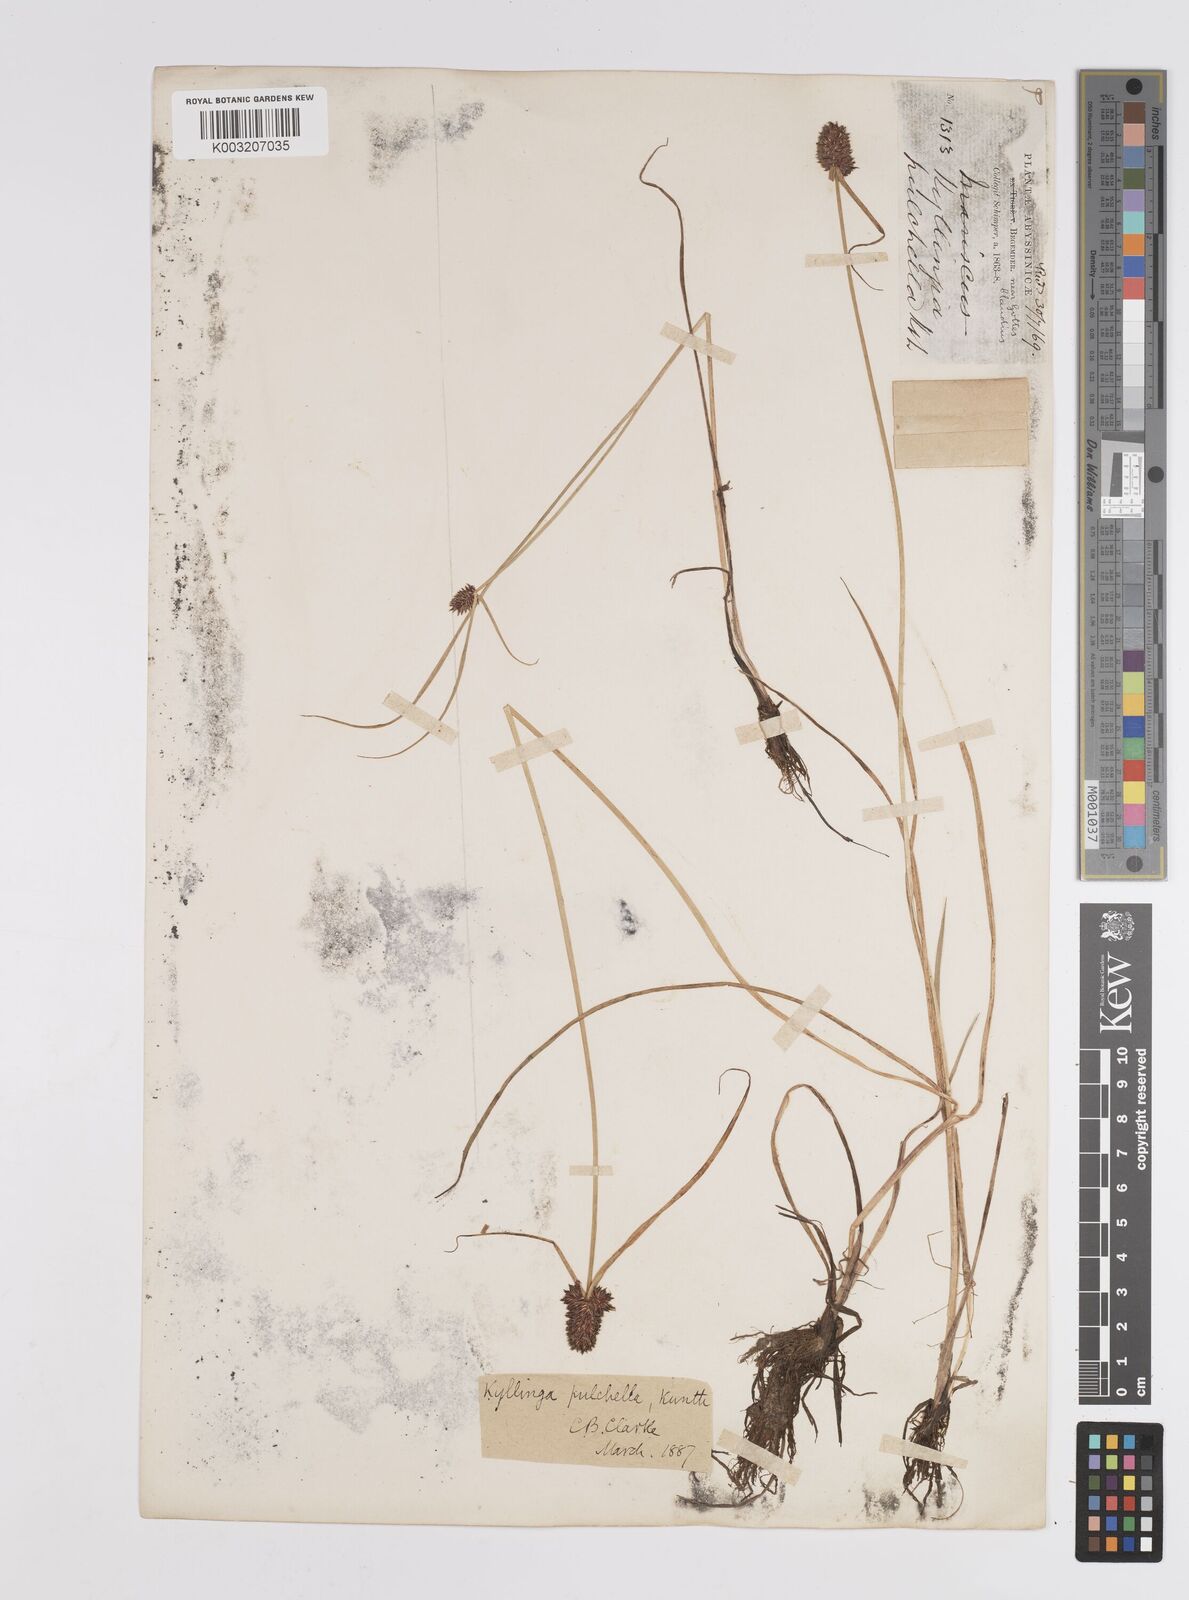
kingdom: Plantae
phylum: Tracheophyta
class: Liliopsida
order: Poales
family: Cyperaceae
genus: Cyperus
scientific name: Cyperus
